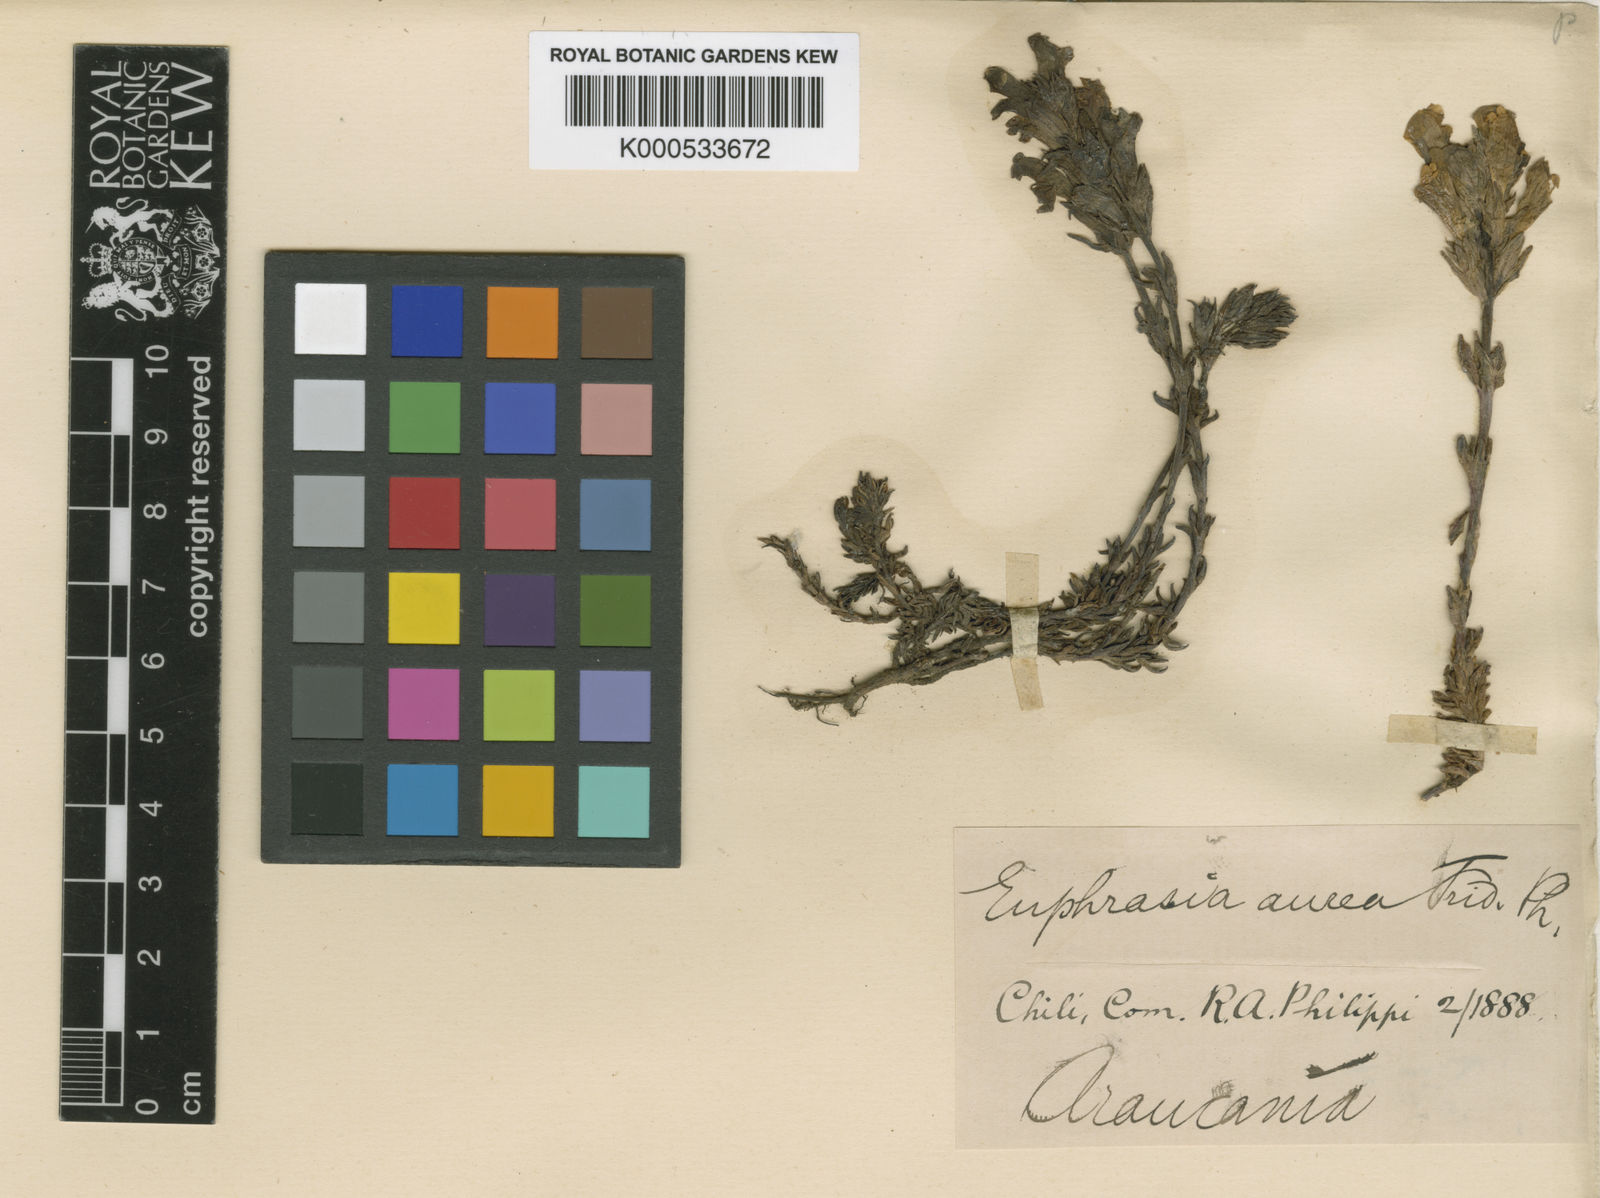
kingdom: Plantae
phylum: Tracheophyta
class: Magnoliopsida
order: Lamiales
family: Orobanchaceae
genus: Euphrasia
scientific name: Euphrasia trifida
